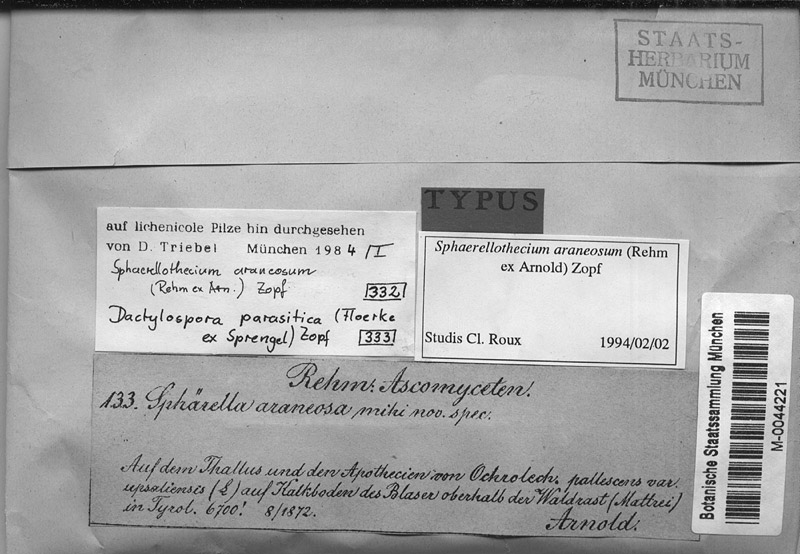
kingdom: Fungi
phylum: Ascomycota
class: Dothideomycetes
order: Mycosphaerellales
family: Mycosphaerellaceae
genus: Sphaerellothecium
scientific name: Sphaerellothecium araneosum
